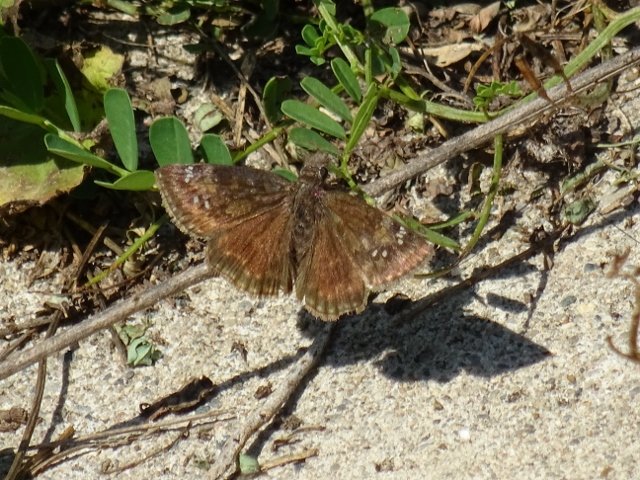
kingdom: Animalia
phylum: Arthropoda
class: Insecta
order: Lepidoptera
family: Hesperiidae
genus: Gesta
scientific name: Gesta
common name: Wild Indigo Duskywing
